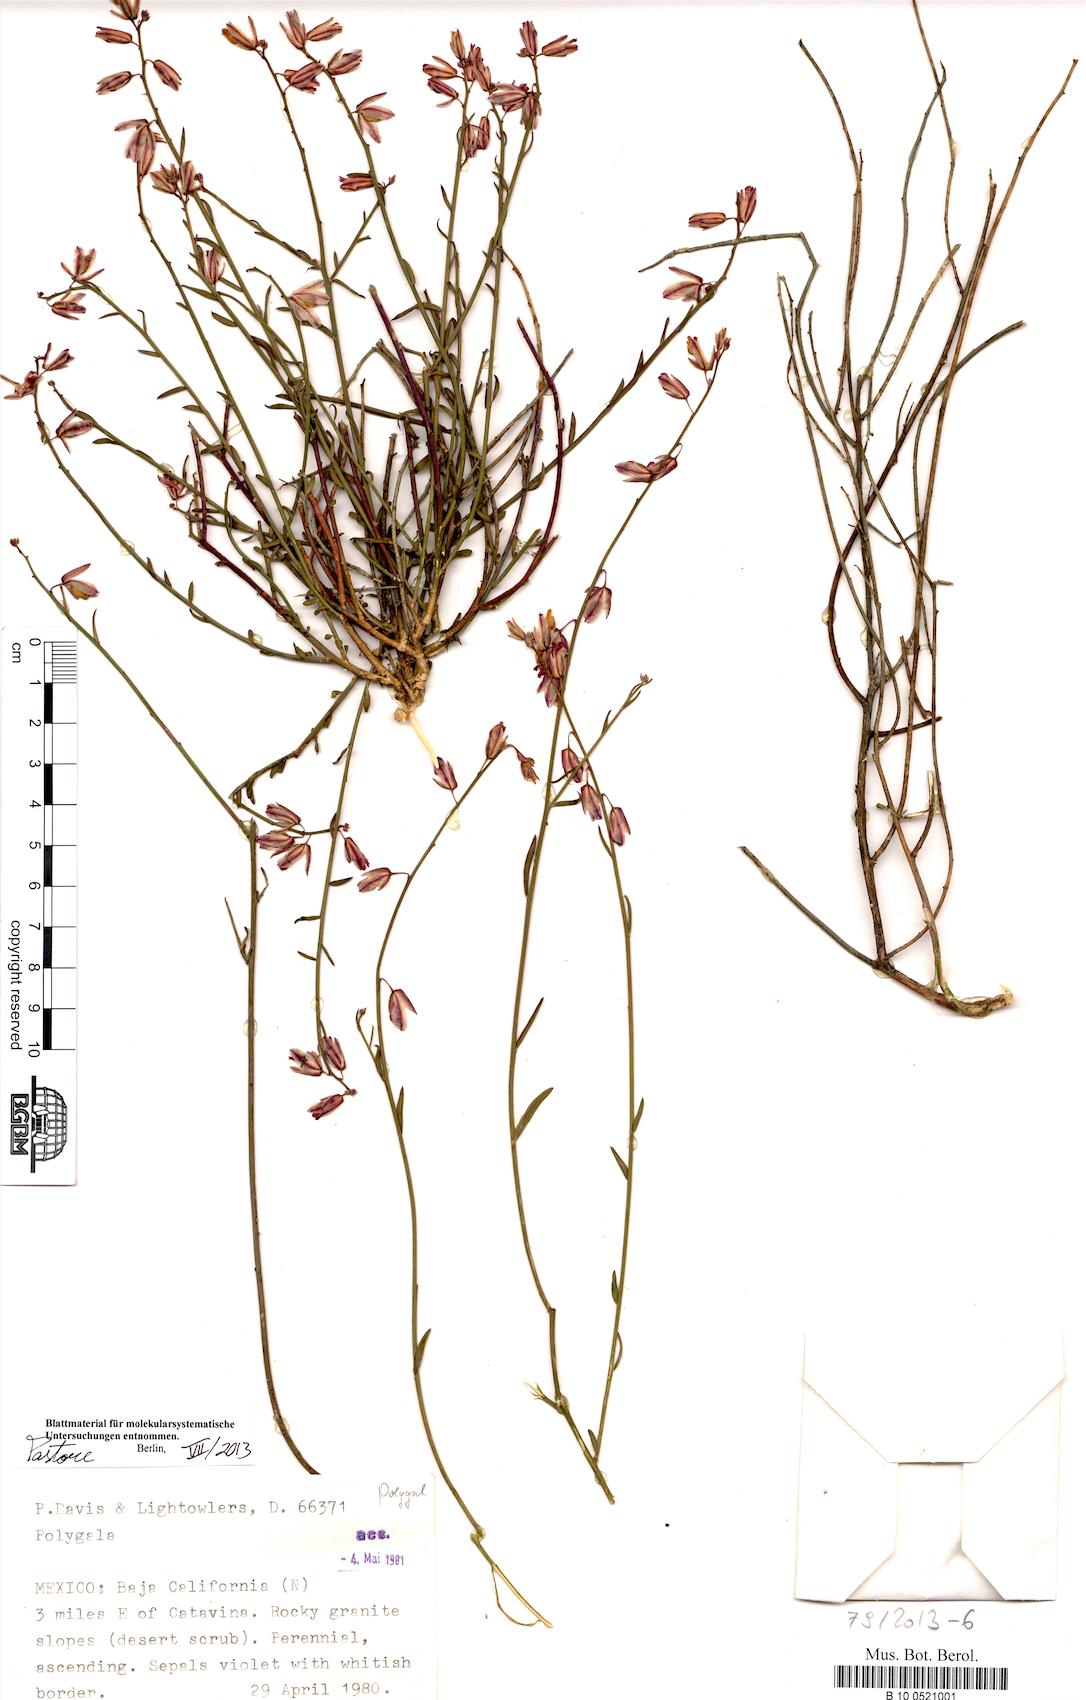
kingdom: Plantae
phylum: Tracheophyta
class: Magnoliopsida
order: Fabales
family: Polygalaceae
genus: Polygala
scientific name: Polygala
